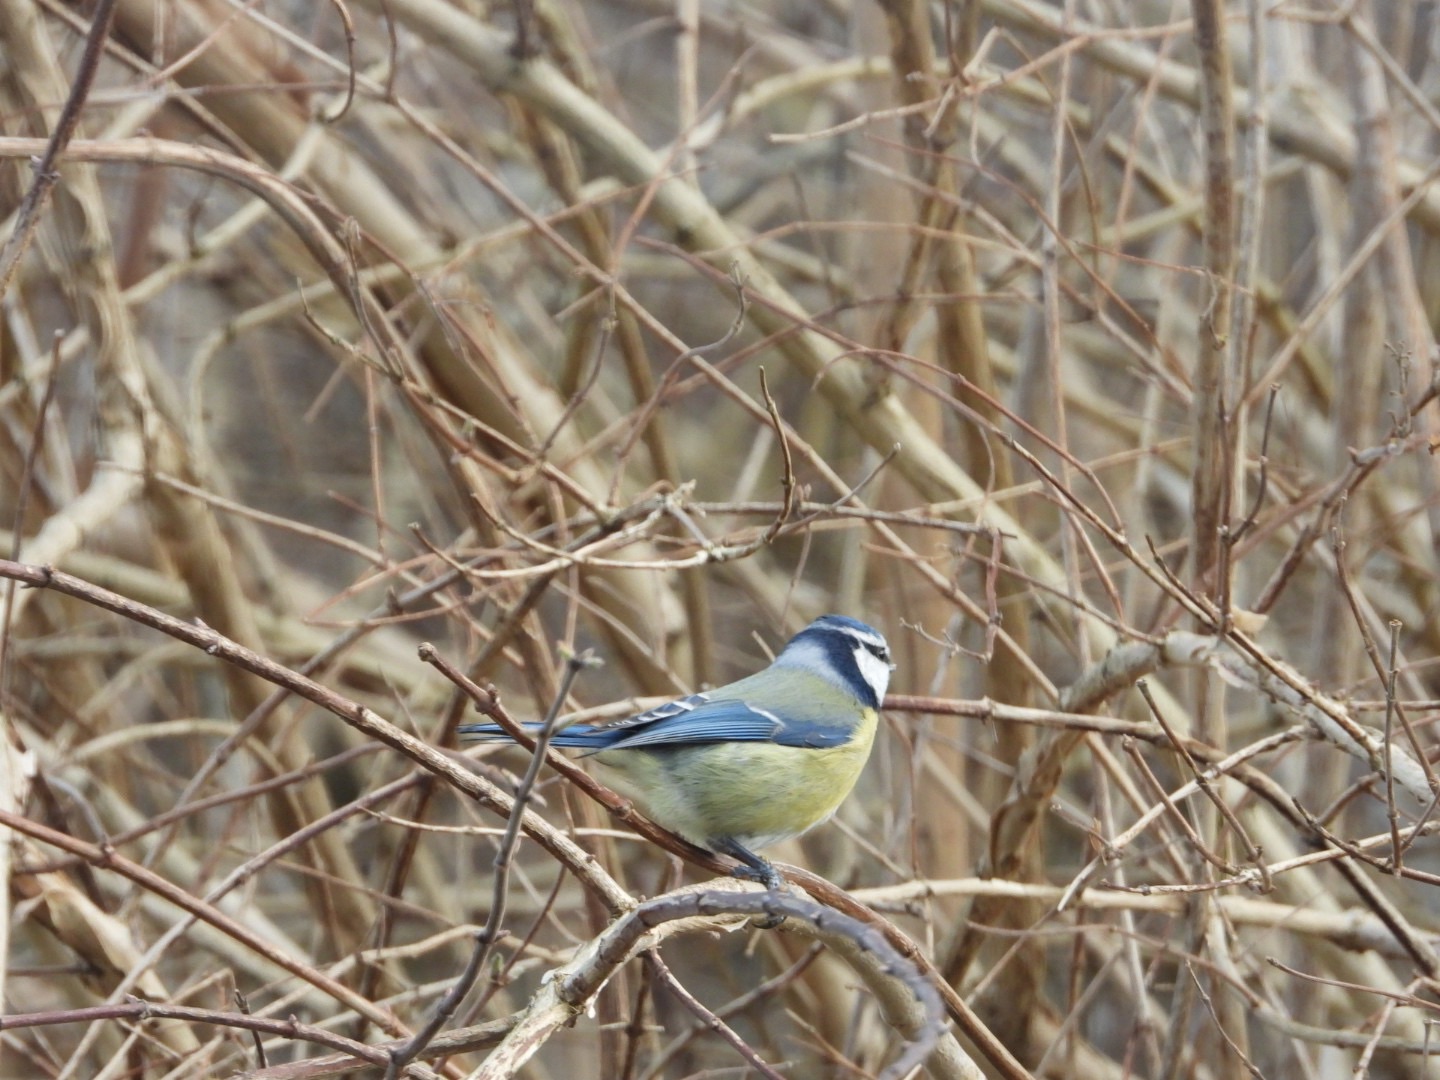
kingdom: Animalia
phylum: Chordata
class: Aves
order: Passeriformes
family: Paridae
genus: Cyanistes
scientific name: Cyanistes caeruleus
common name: Blåmejse
